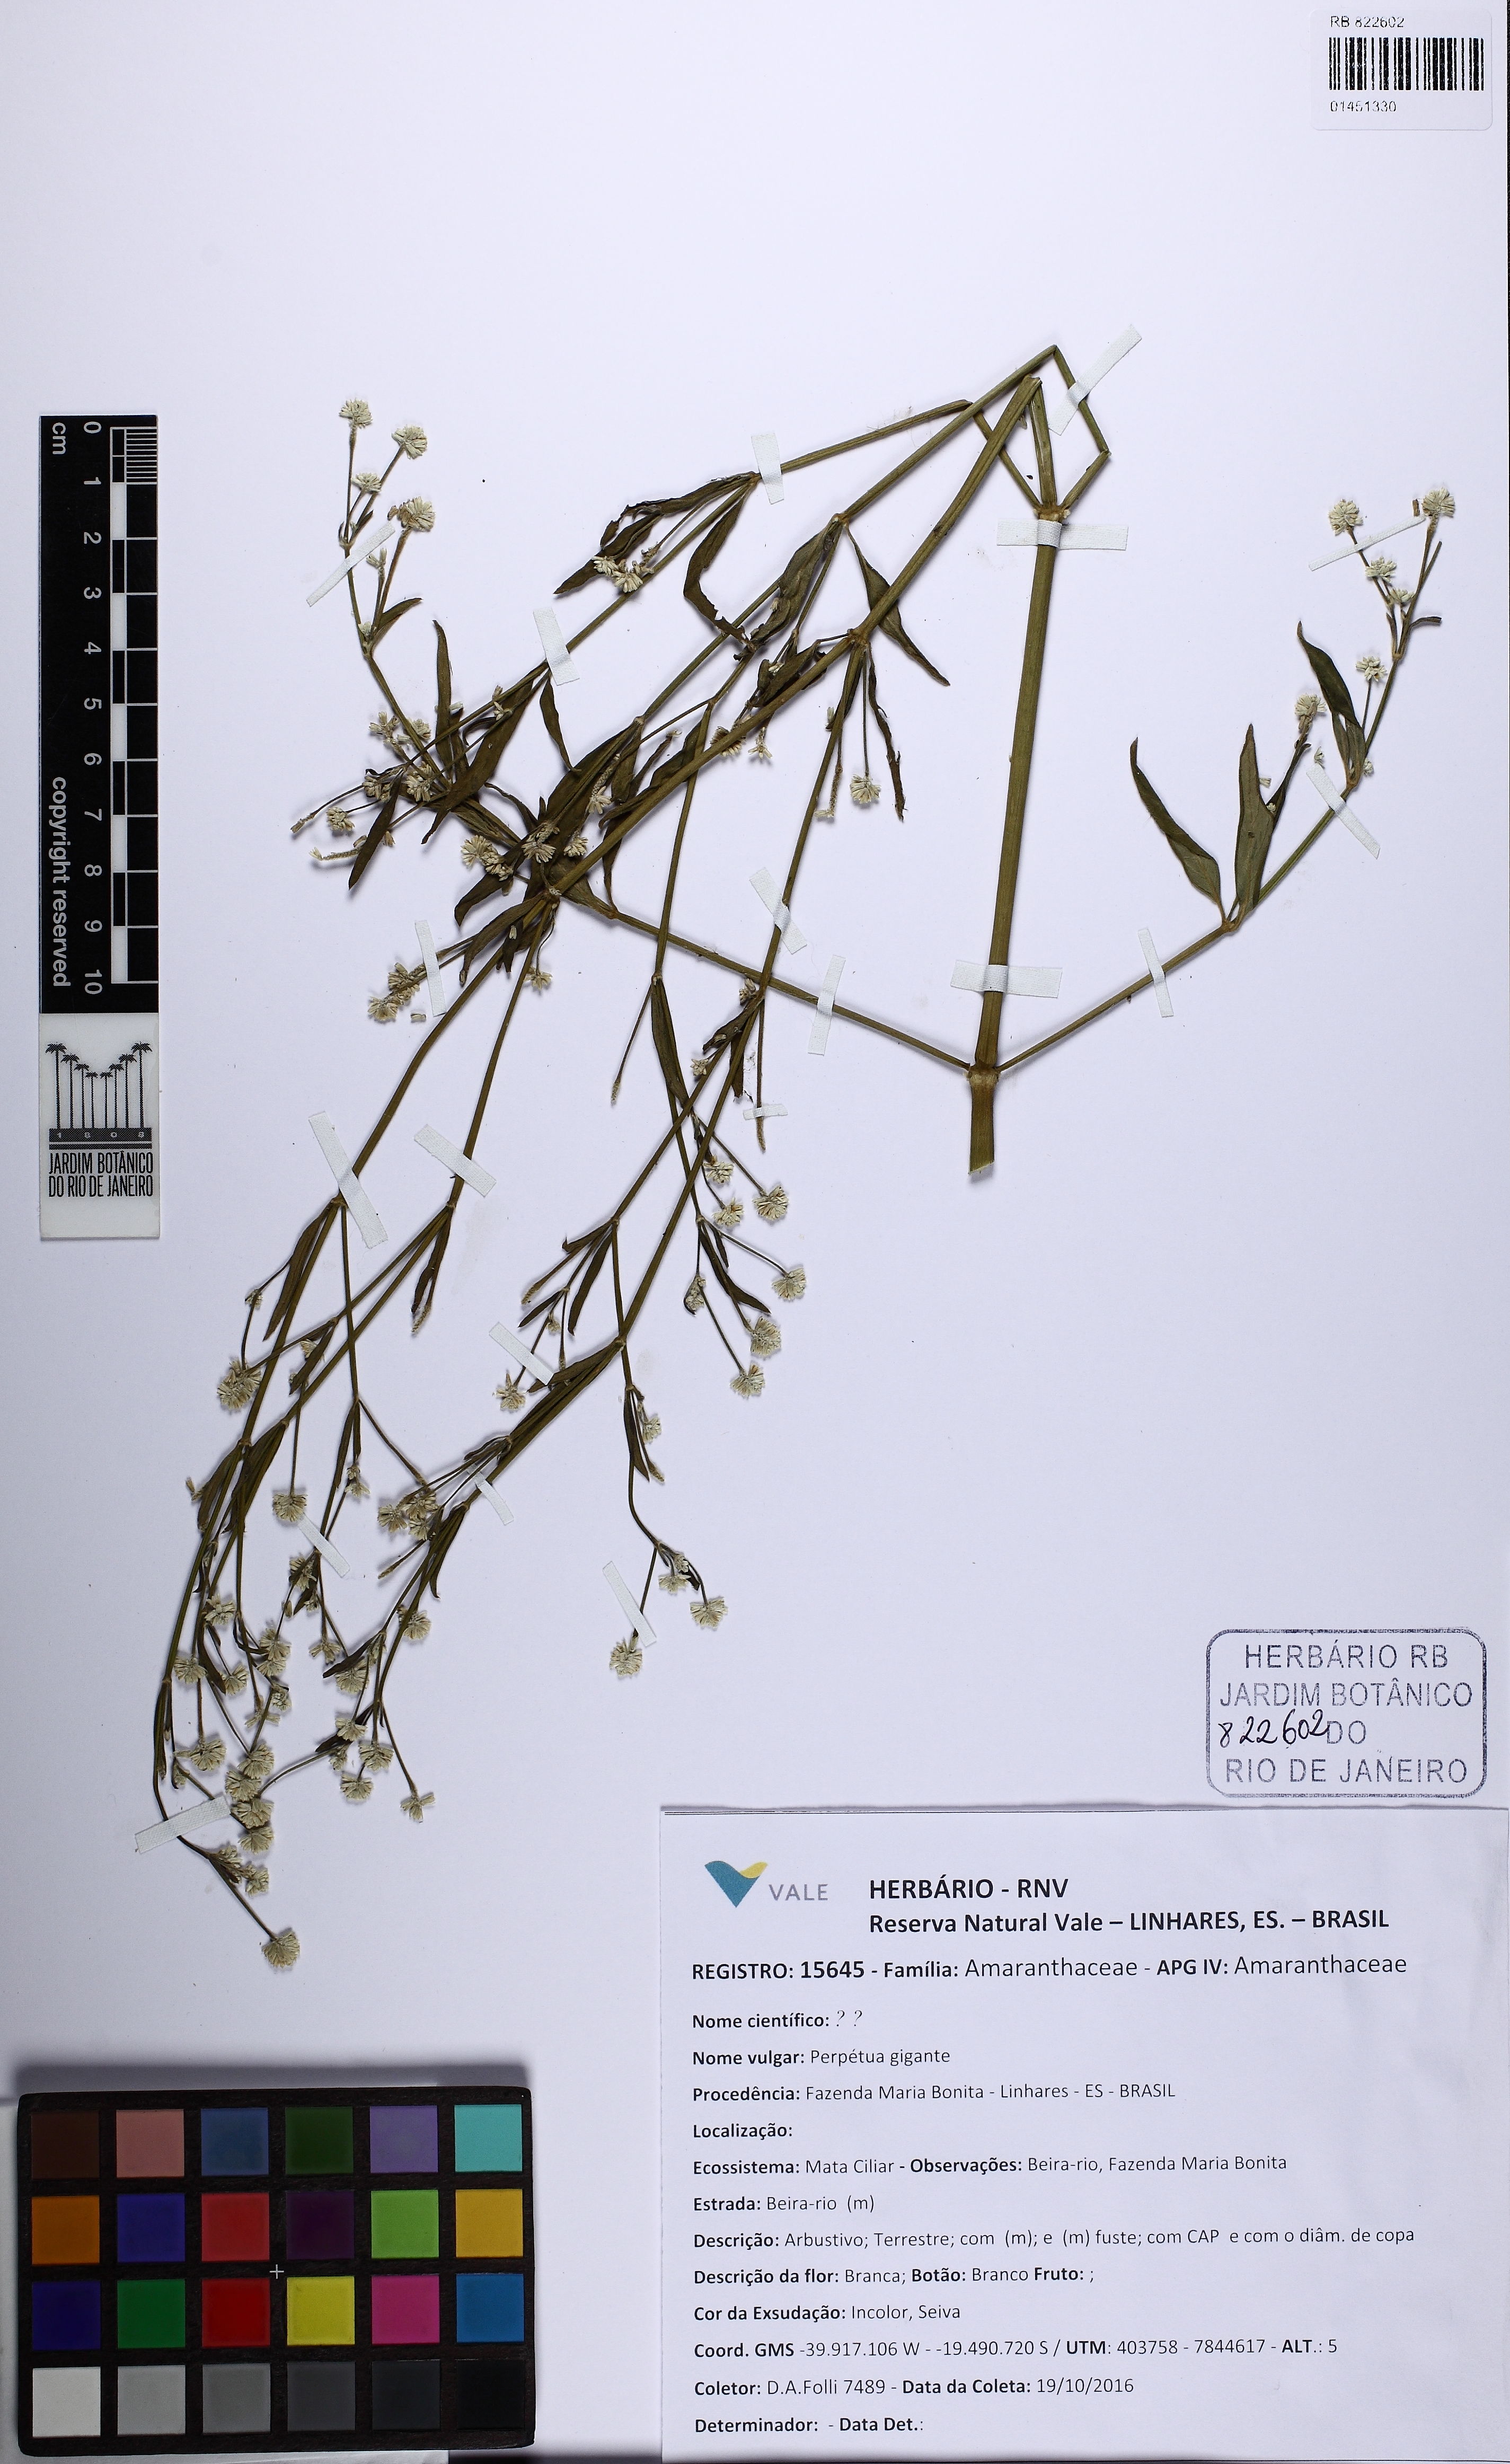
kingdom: Plantae
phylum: Tracheophyta
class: Magnoliopsida
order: Caryophyllales
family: Amaranthaceae
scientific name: Amaranthaceae
